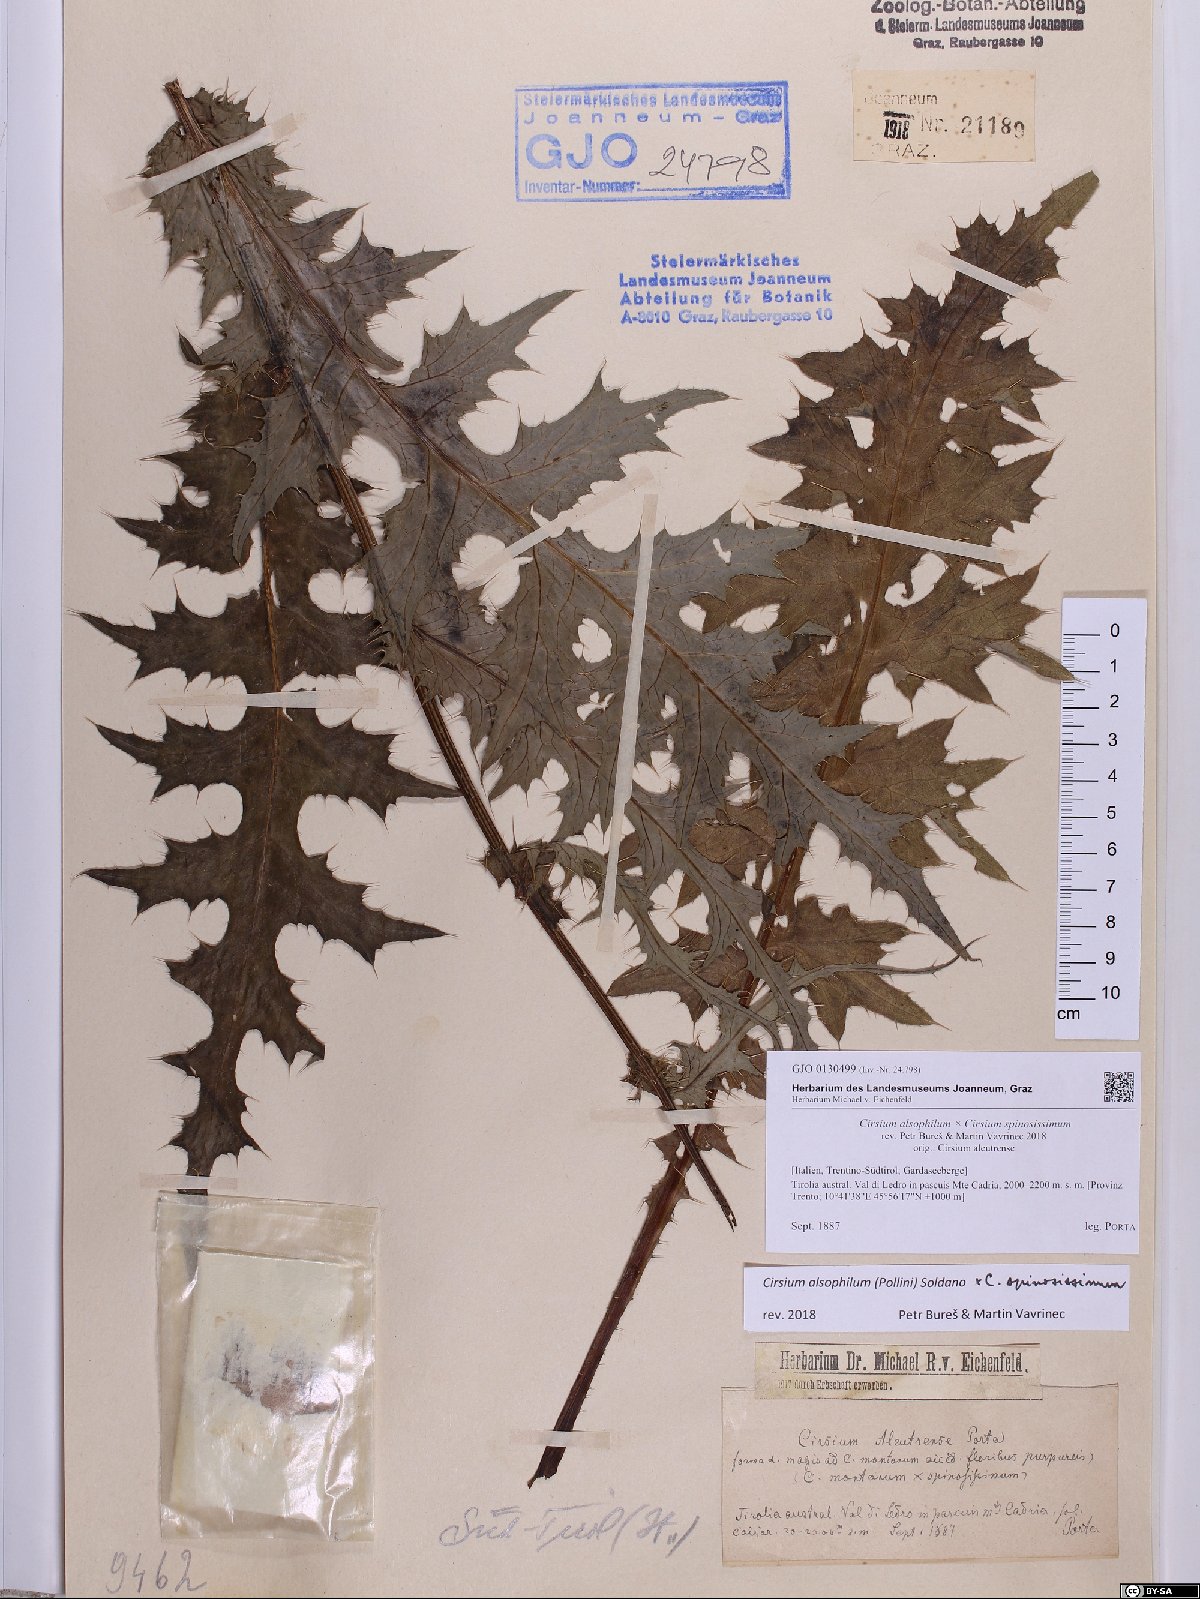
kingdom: Plantae
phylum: Tracheophyta
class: Magnoliopsida
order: Asterales
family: Asteraceae
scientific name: Asteraceae
